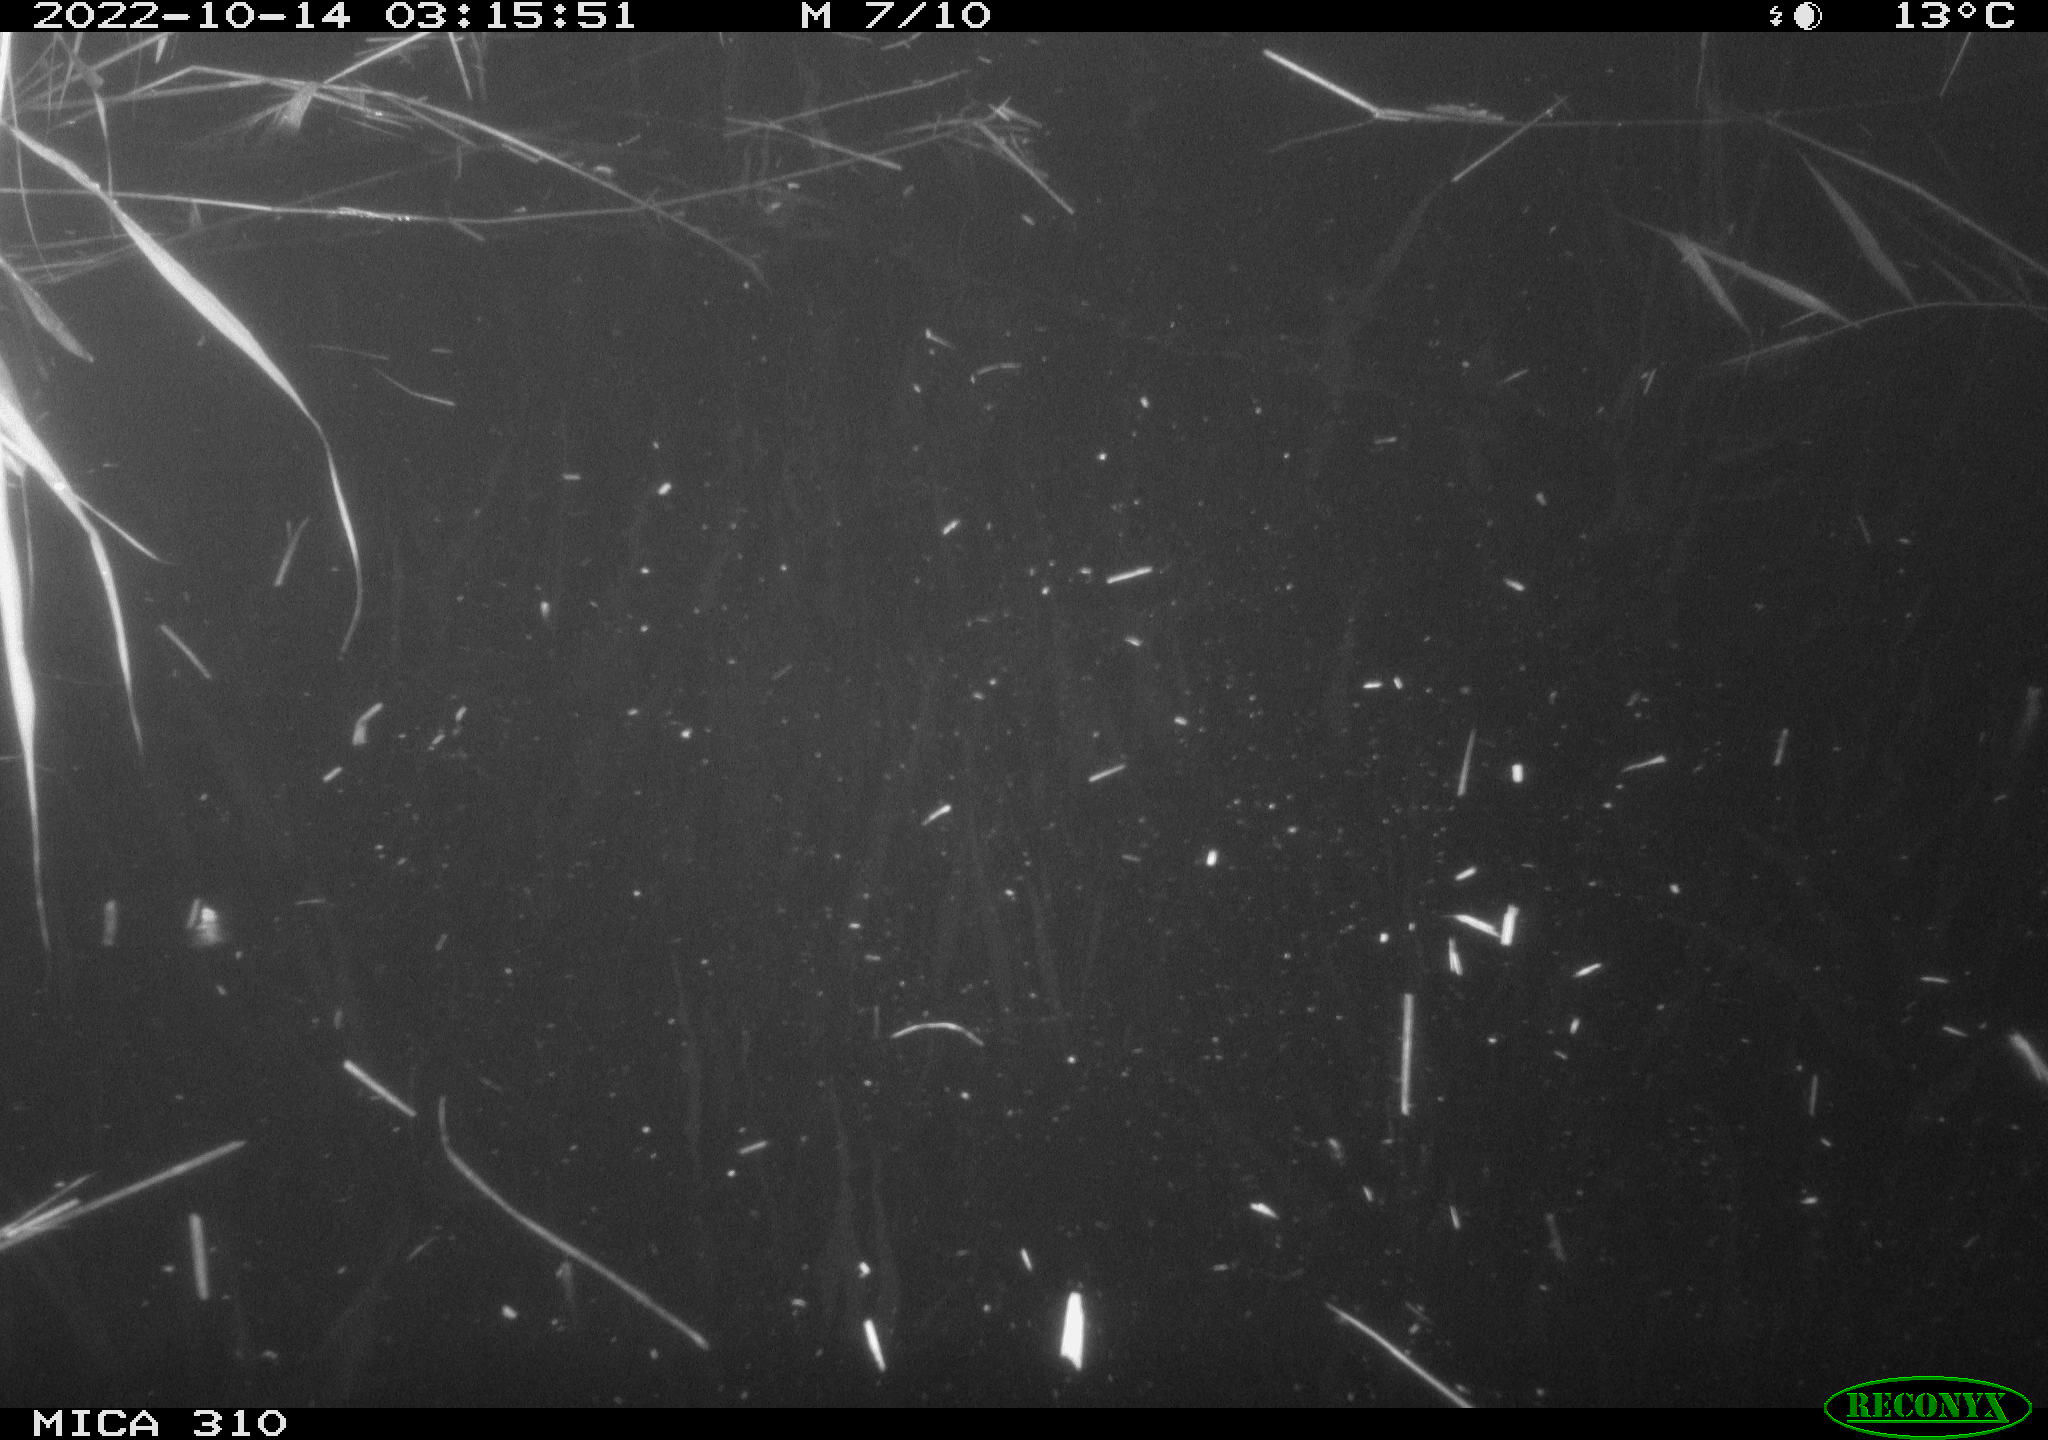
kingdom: Animalia
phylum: Chordata
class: Mammalia
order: Rodentia
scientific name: Rodentia
